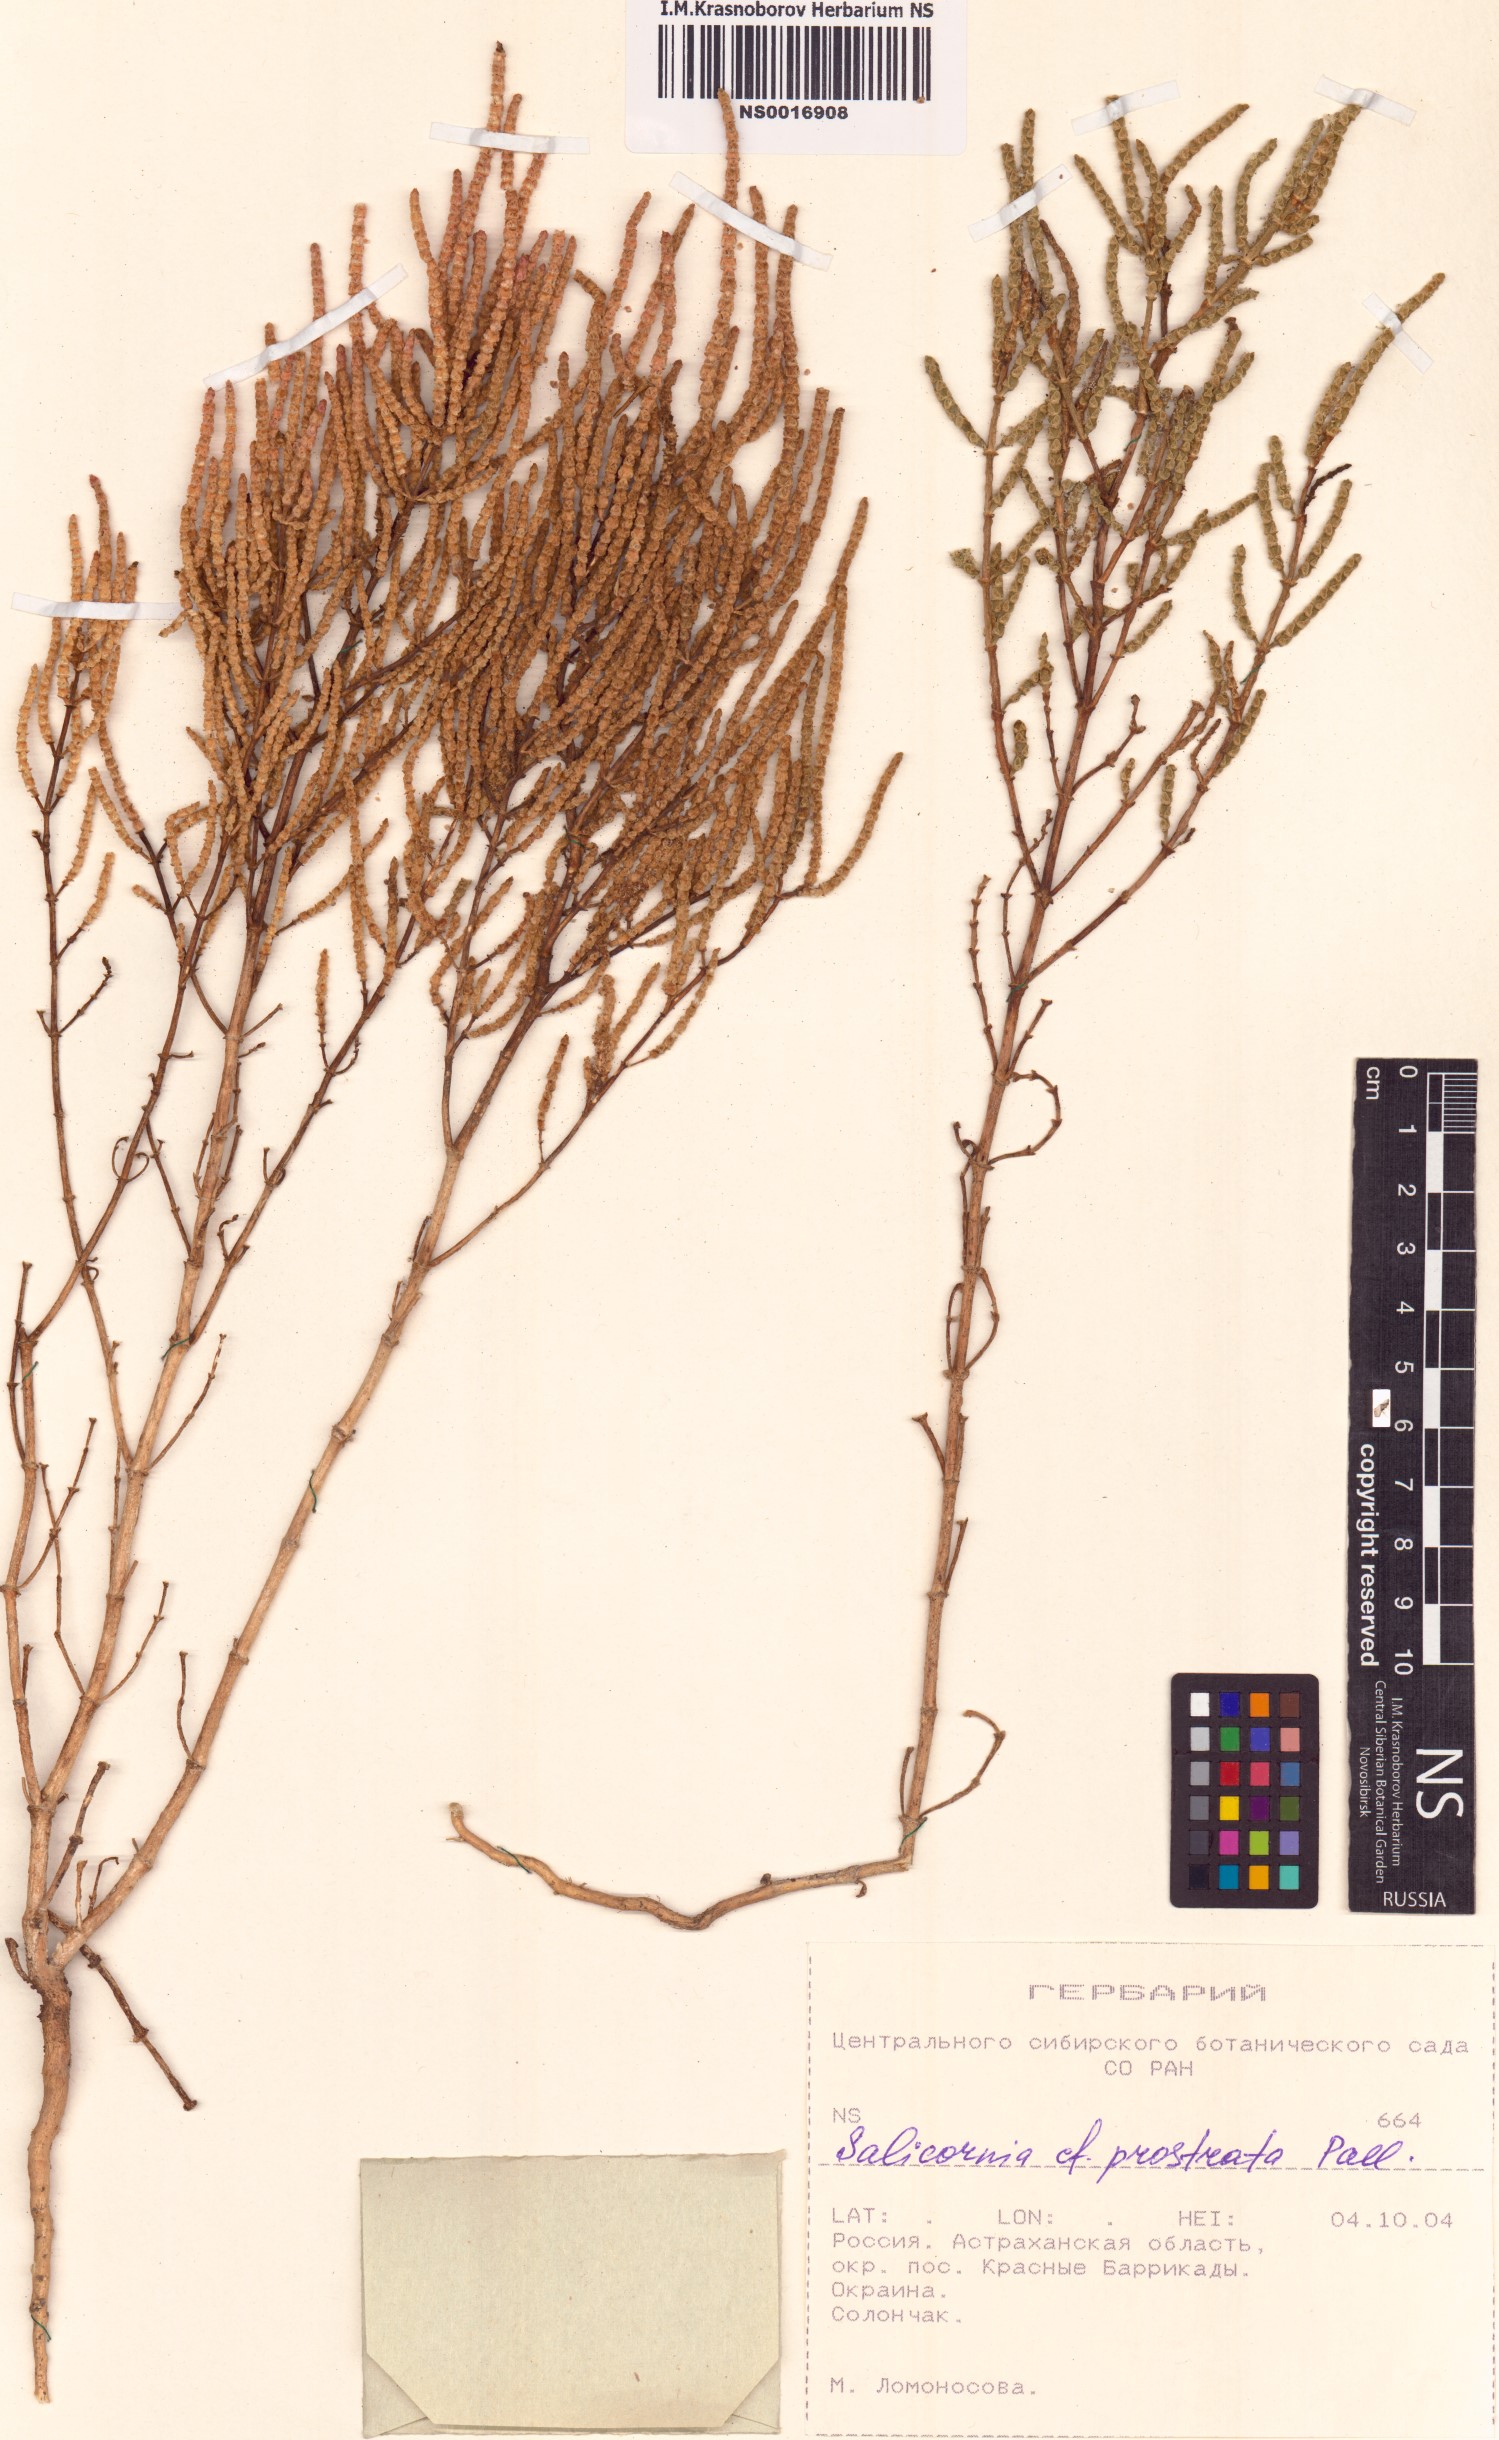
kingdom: Plantae
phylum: Tracheophyta
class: Magnoliopsida
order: Caryophyllales
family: Amaranthaceae
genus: Salicornia
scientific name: Salicornia perennans
